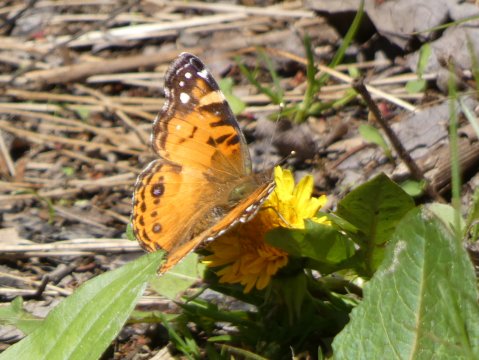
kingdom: Animalia
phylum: Arthropoda
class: Insecta
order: Lepidoptera
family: Nymphalidae
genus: Vanessa
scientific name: Vanessa virginiensis
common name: American Lady
